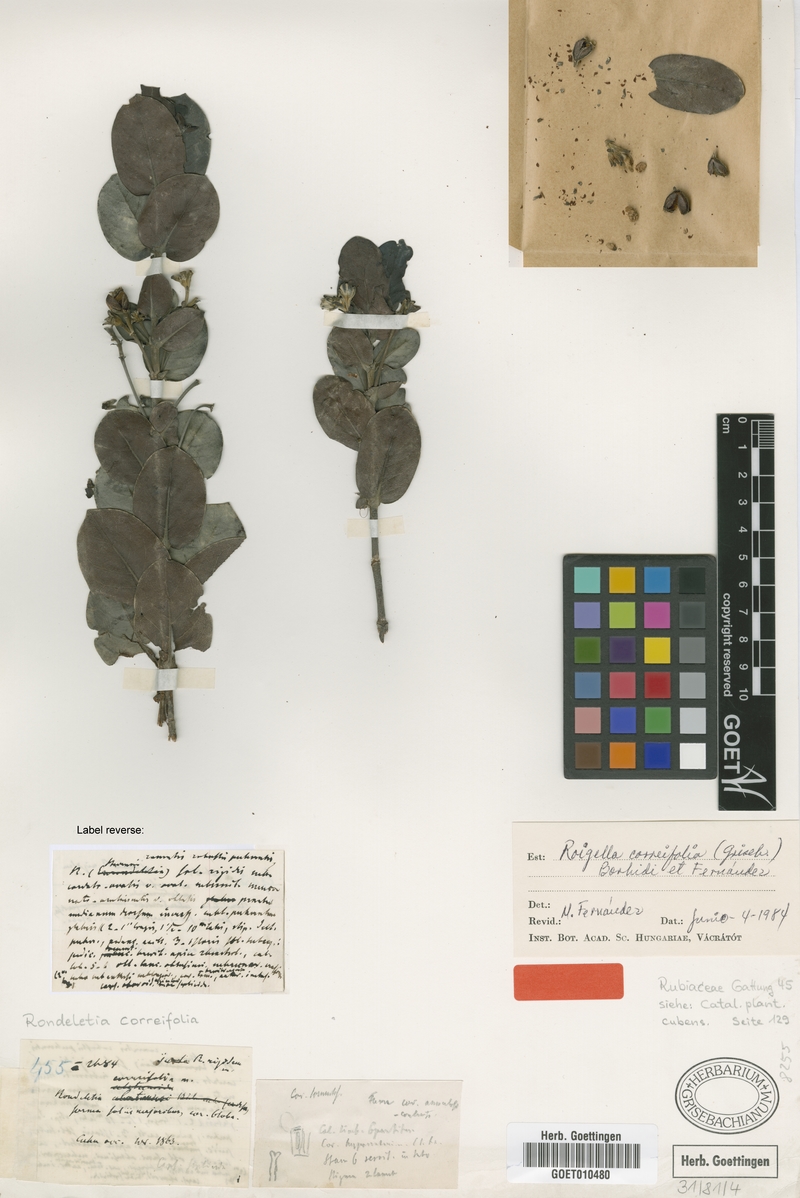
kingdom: Plantae
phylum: Tracheophyta
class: Magnoliopsida
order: Gentianales
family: Rubiaceae
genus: Roigella
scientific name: Roigella correifolia
